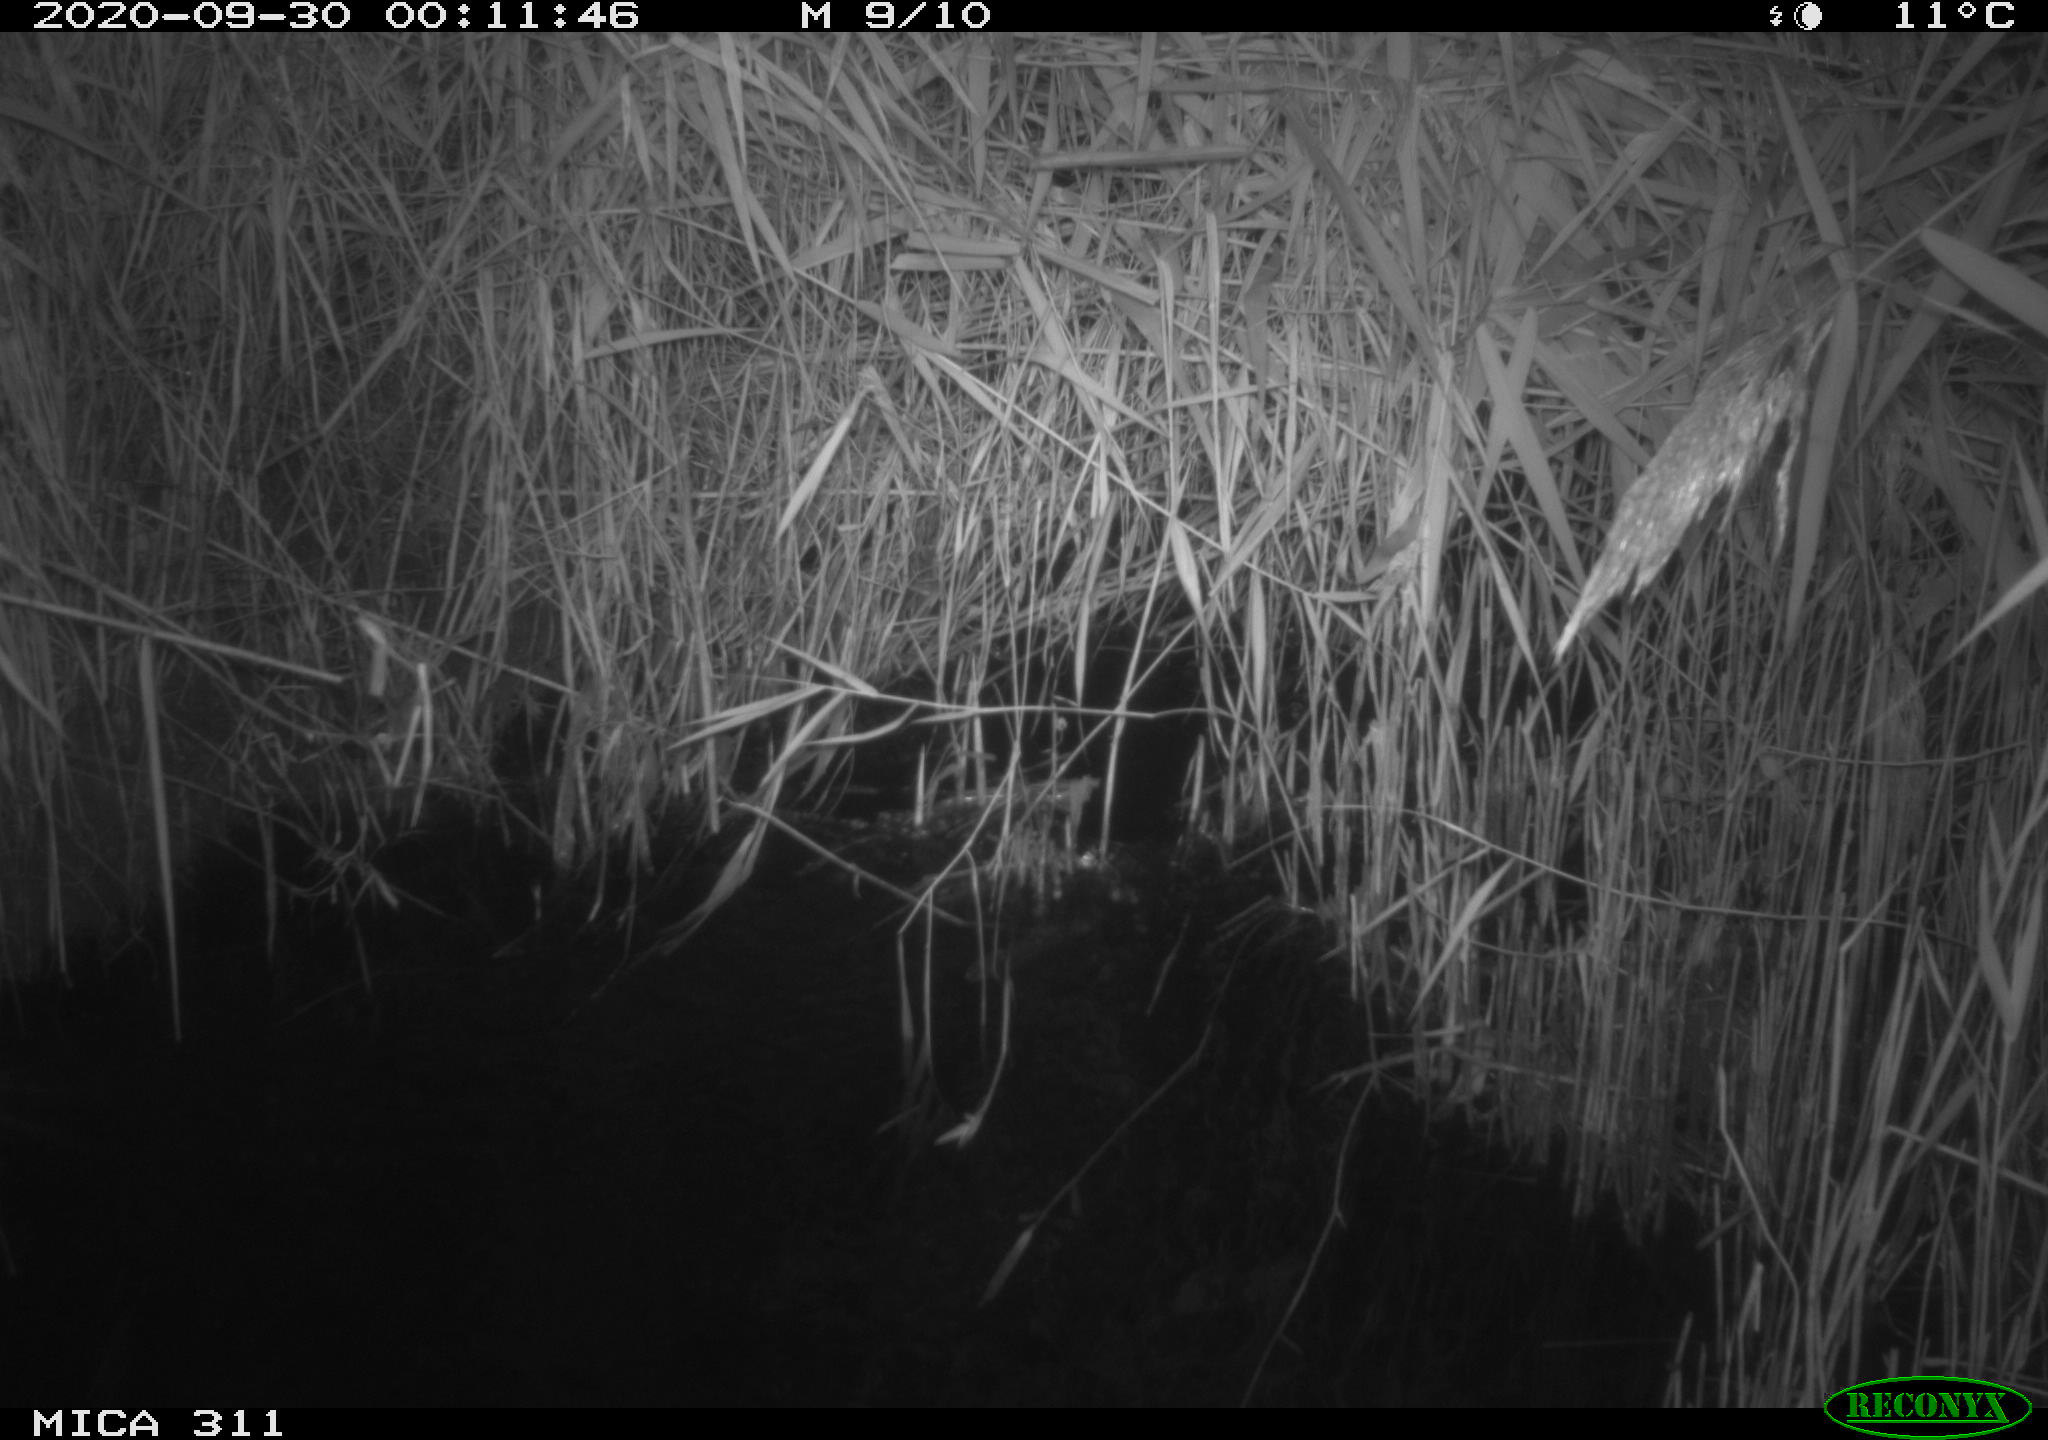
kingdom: Animalia
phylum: Chordata
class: Mammalia
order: Rodentia
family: Muridae
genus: Rattus
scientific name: Rattus norvegicus
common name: Brown rat
